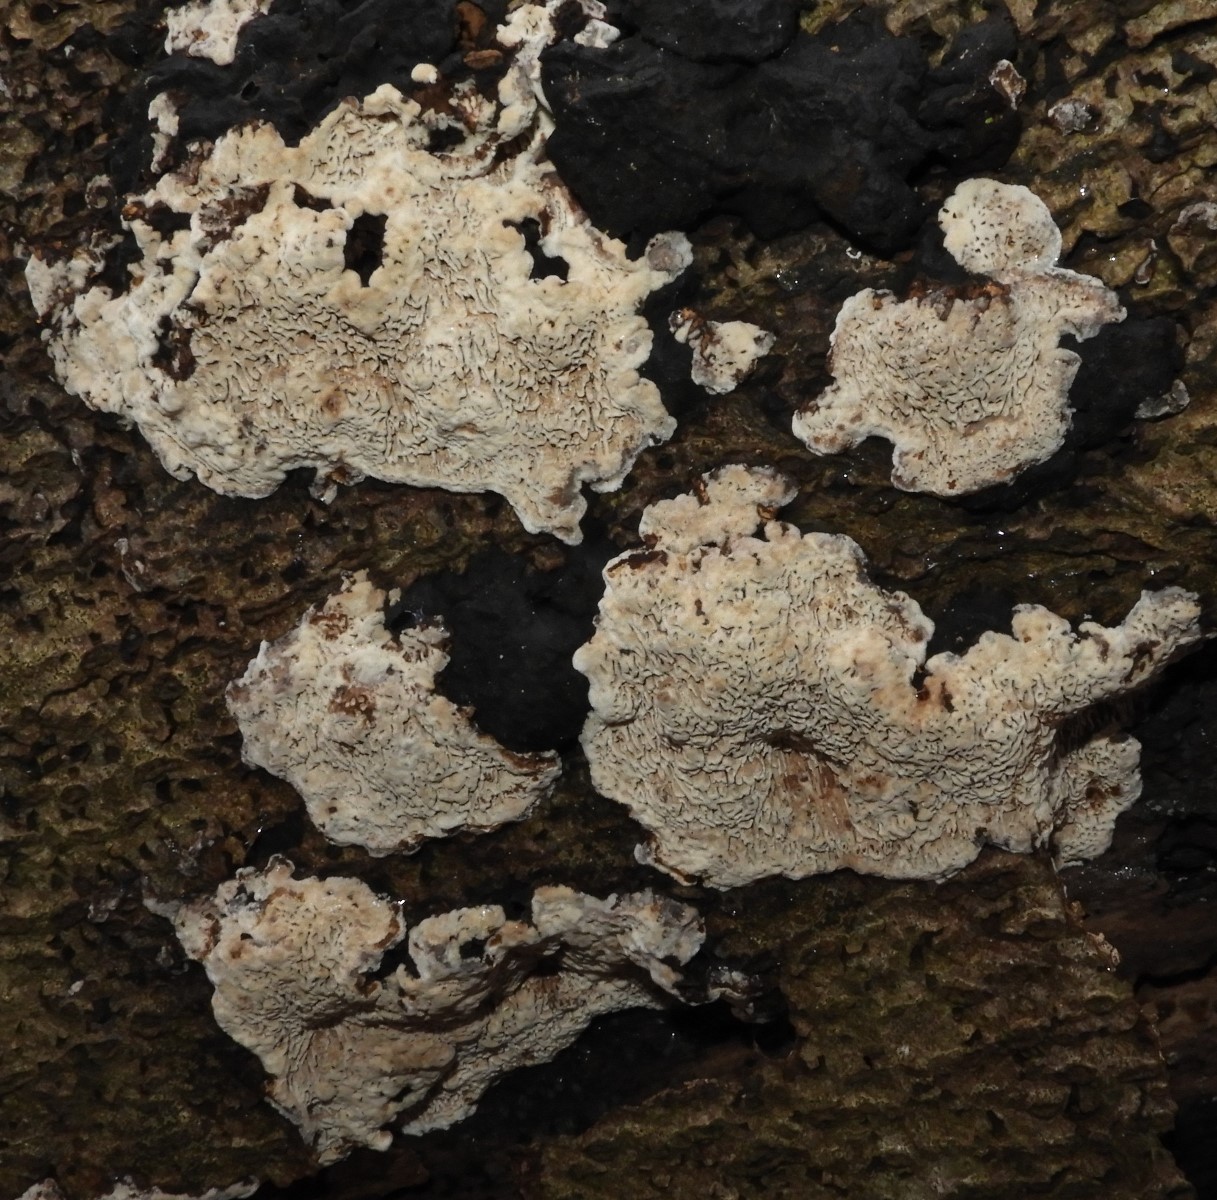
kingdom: Fungi
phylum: Basidiomycota
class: Agaricomycetes
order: Polyporales
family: Polyporaceae
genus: Podofomes
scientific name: Podofomes mollis
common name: blød begporesvamp
